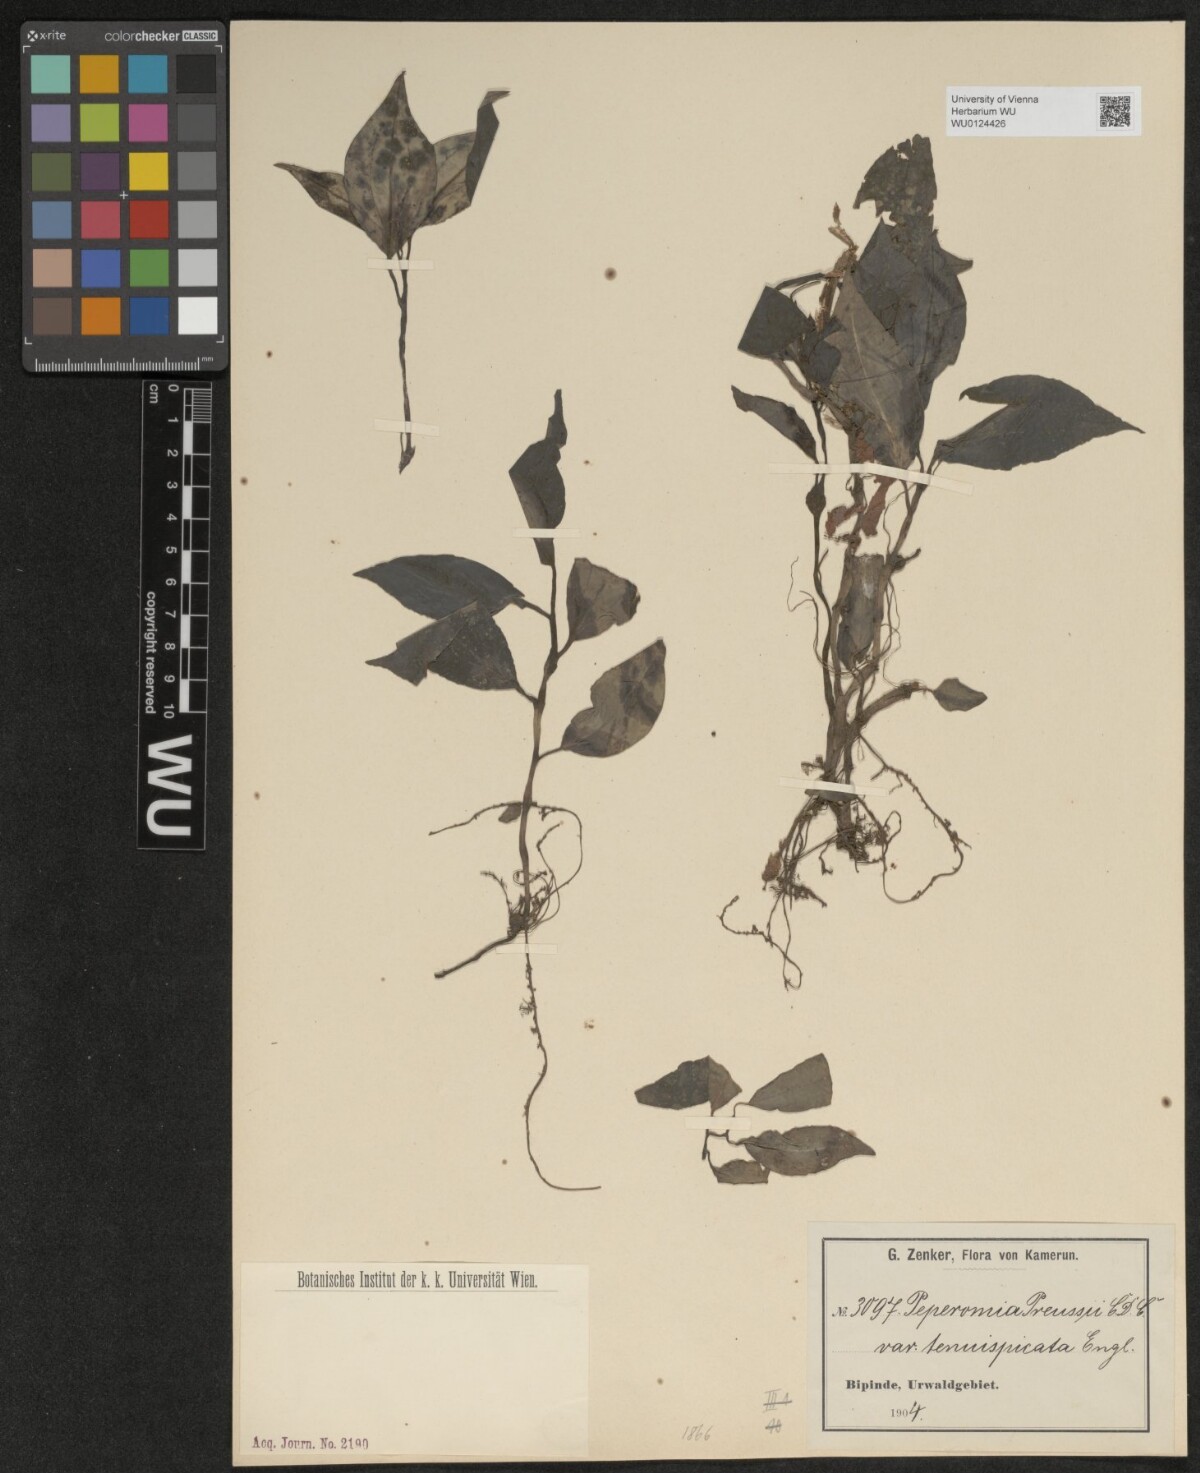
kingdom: Plantae
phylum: Tracheophyta
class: Magnoliopsida
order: Piperales
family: Piperaceae
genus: Peperomia
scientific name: Peperomia fernandopoiana
